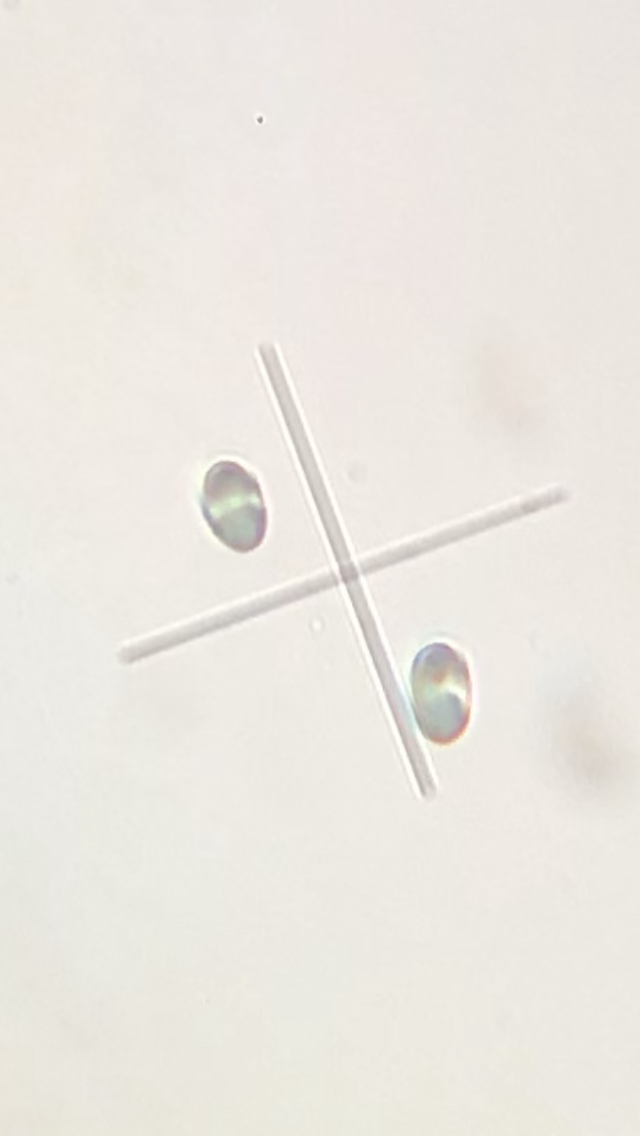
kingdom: Fungi
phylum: Basidiomycota
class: Agaricomycetes
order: Polyporales
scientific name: Polyporales
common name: poresvampordenen
